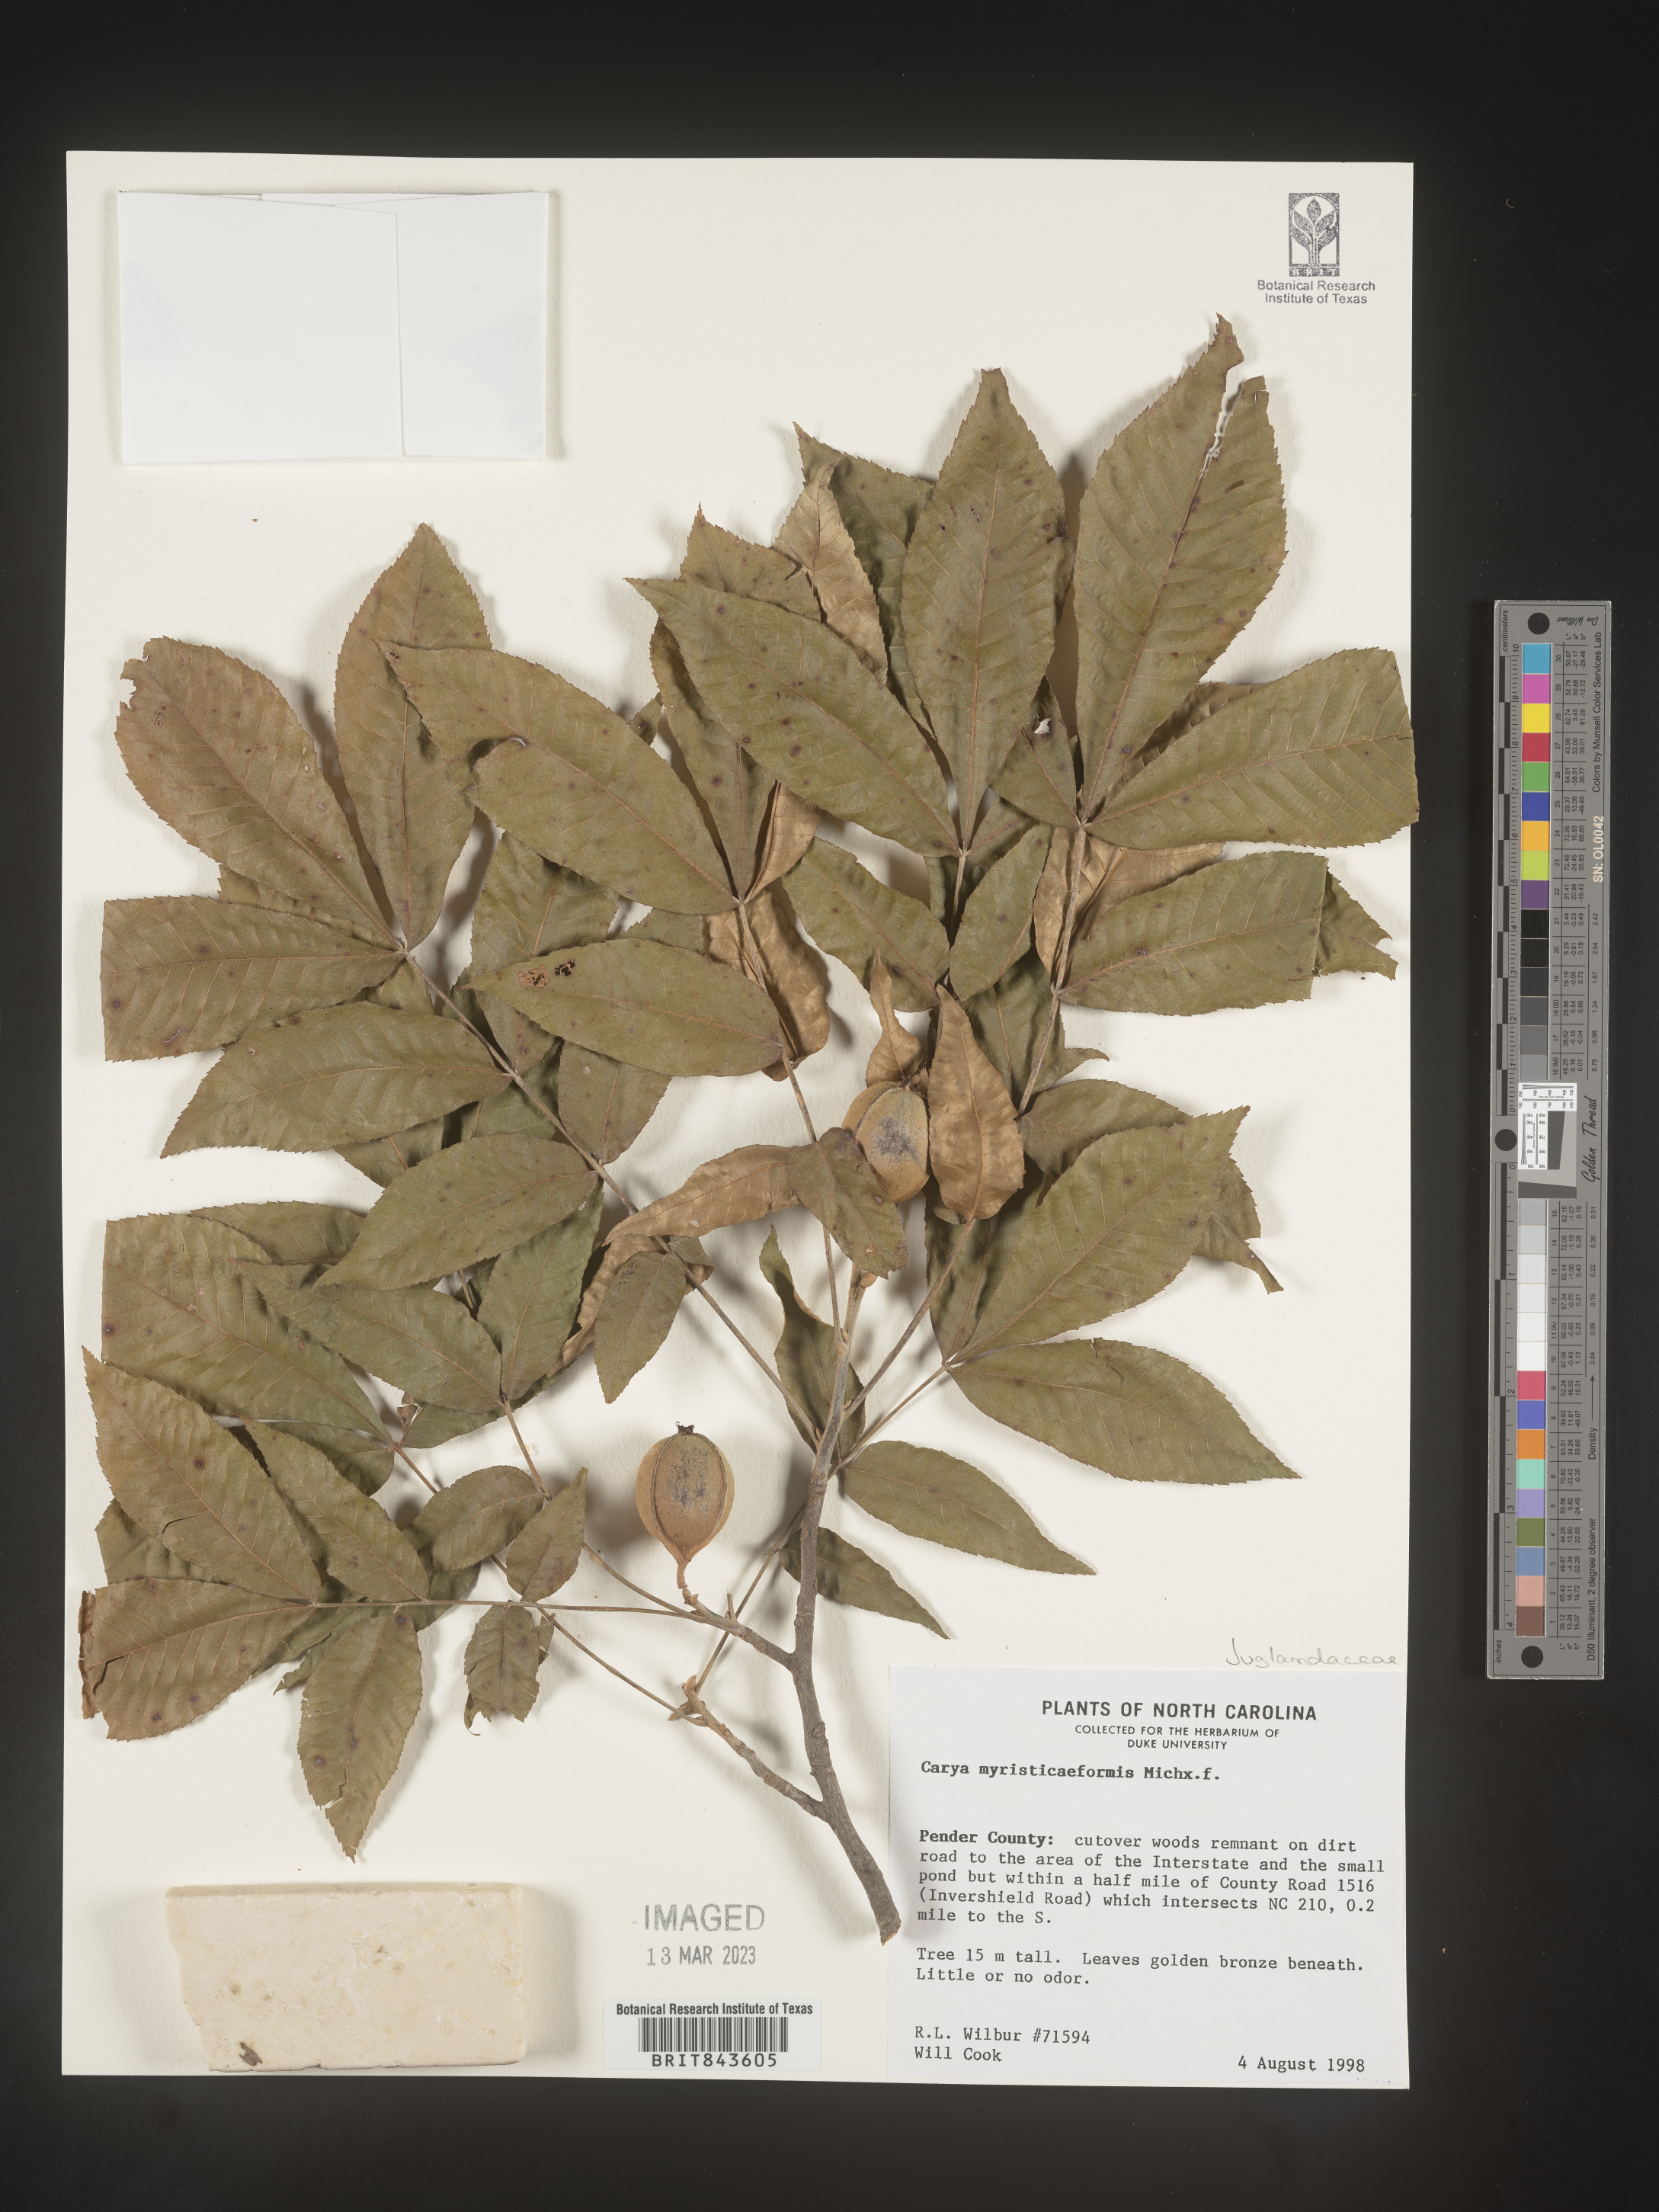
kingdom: Plantae
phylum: Tracheophyta
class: Magnoliopsida
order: Fagales
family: Juglandaceae
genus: Carya
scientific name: Carya myristiciformis
